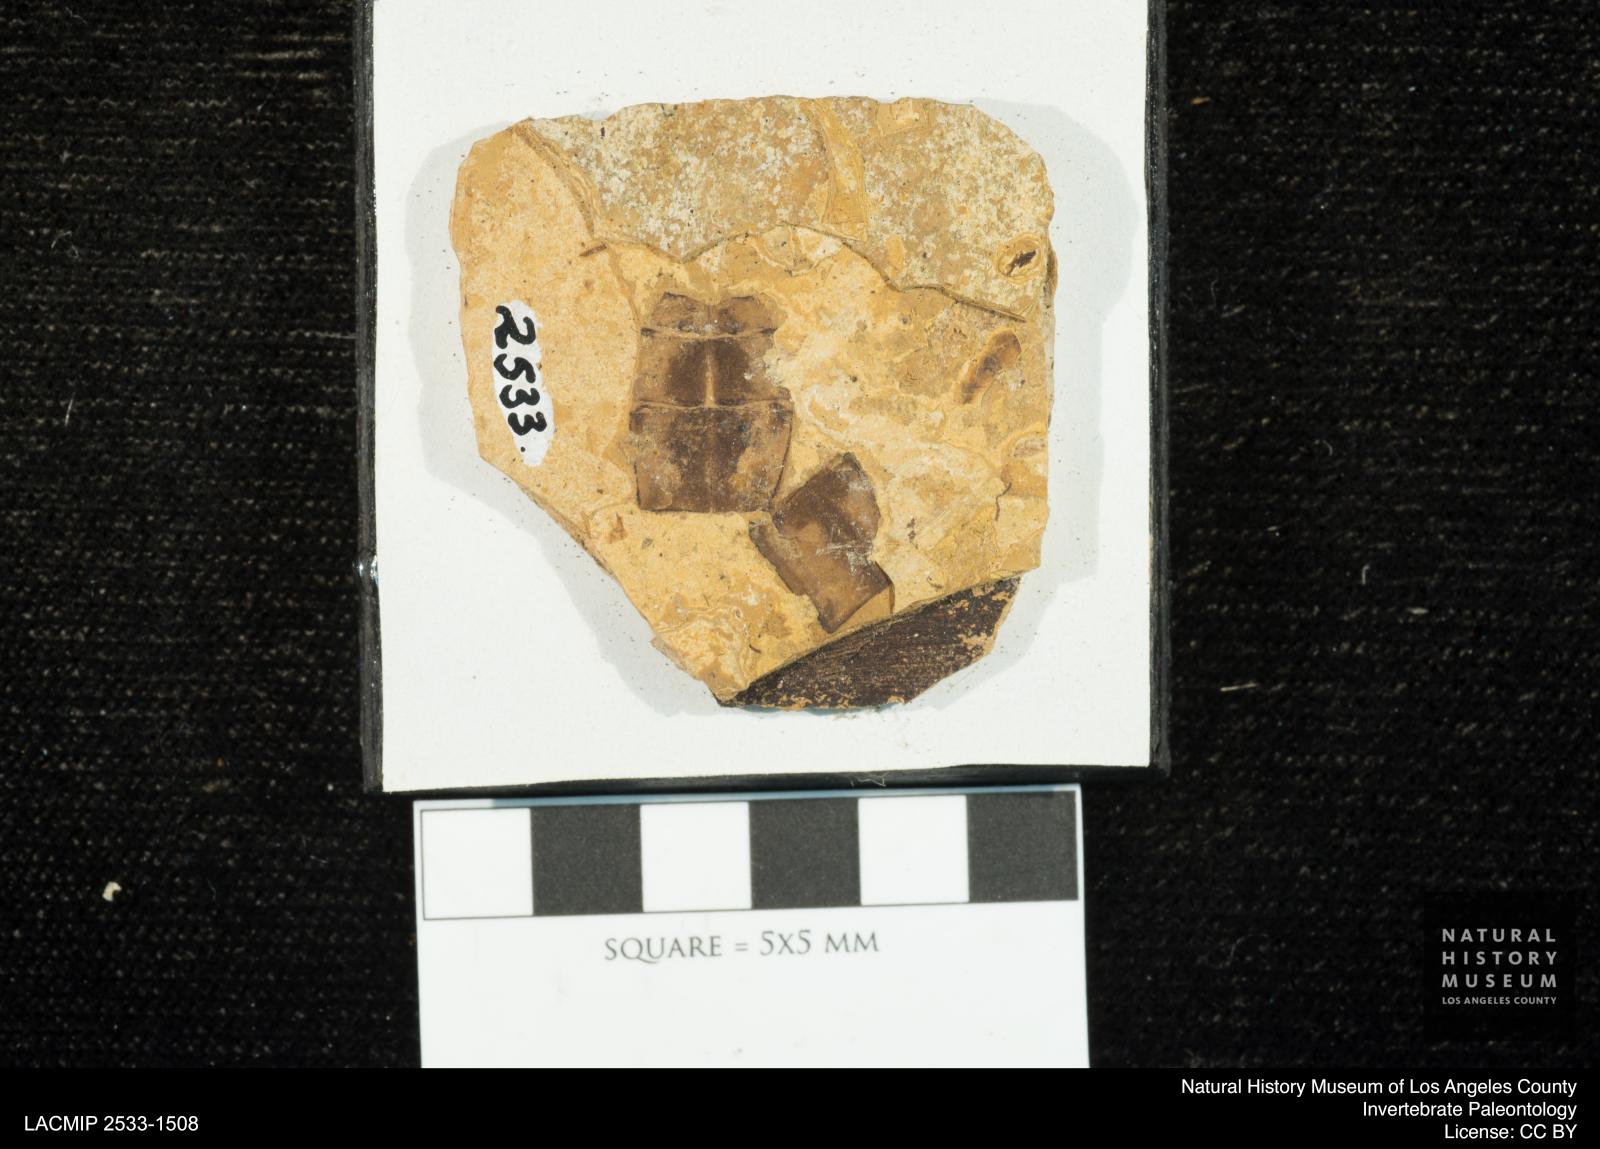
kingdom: Animalia
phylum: Arthropoda
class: Insecta
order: Odonata
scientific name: Odonata
